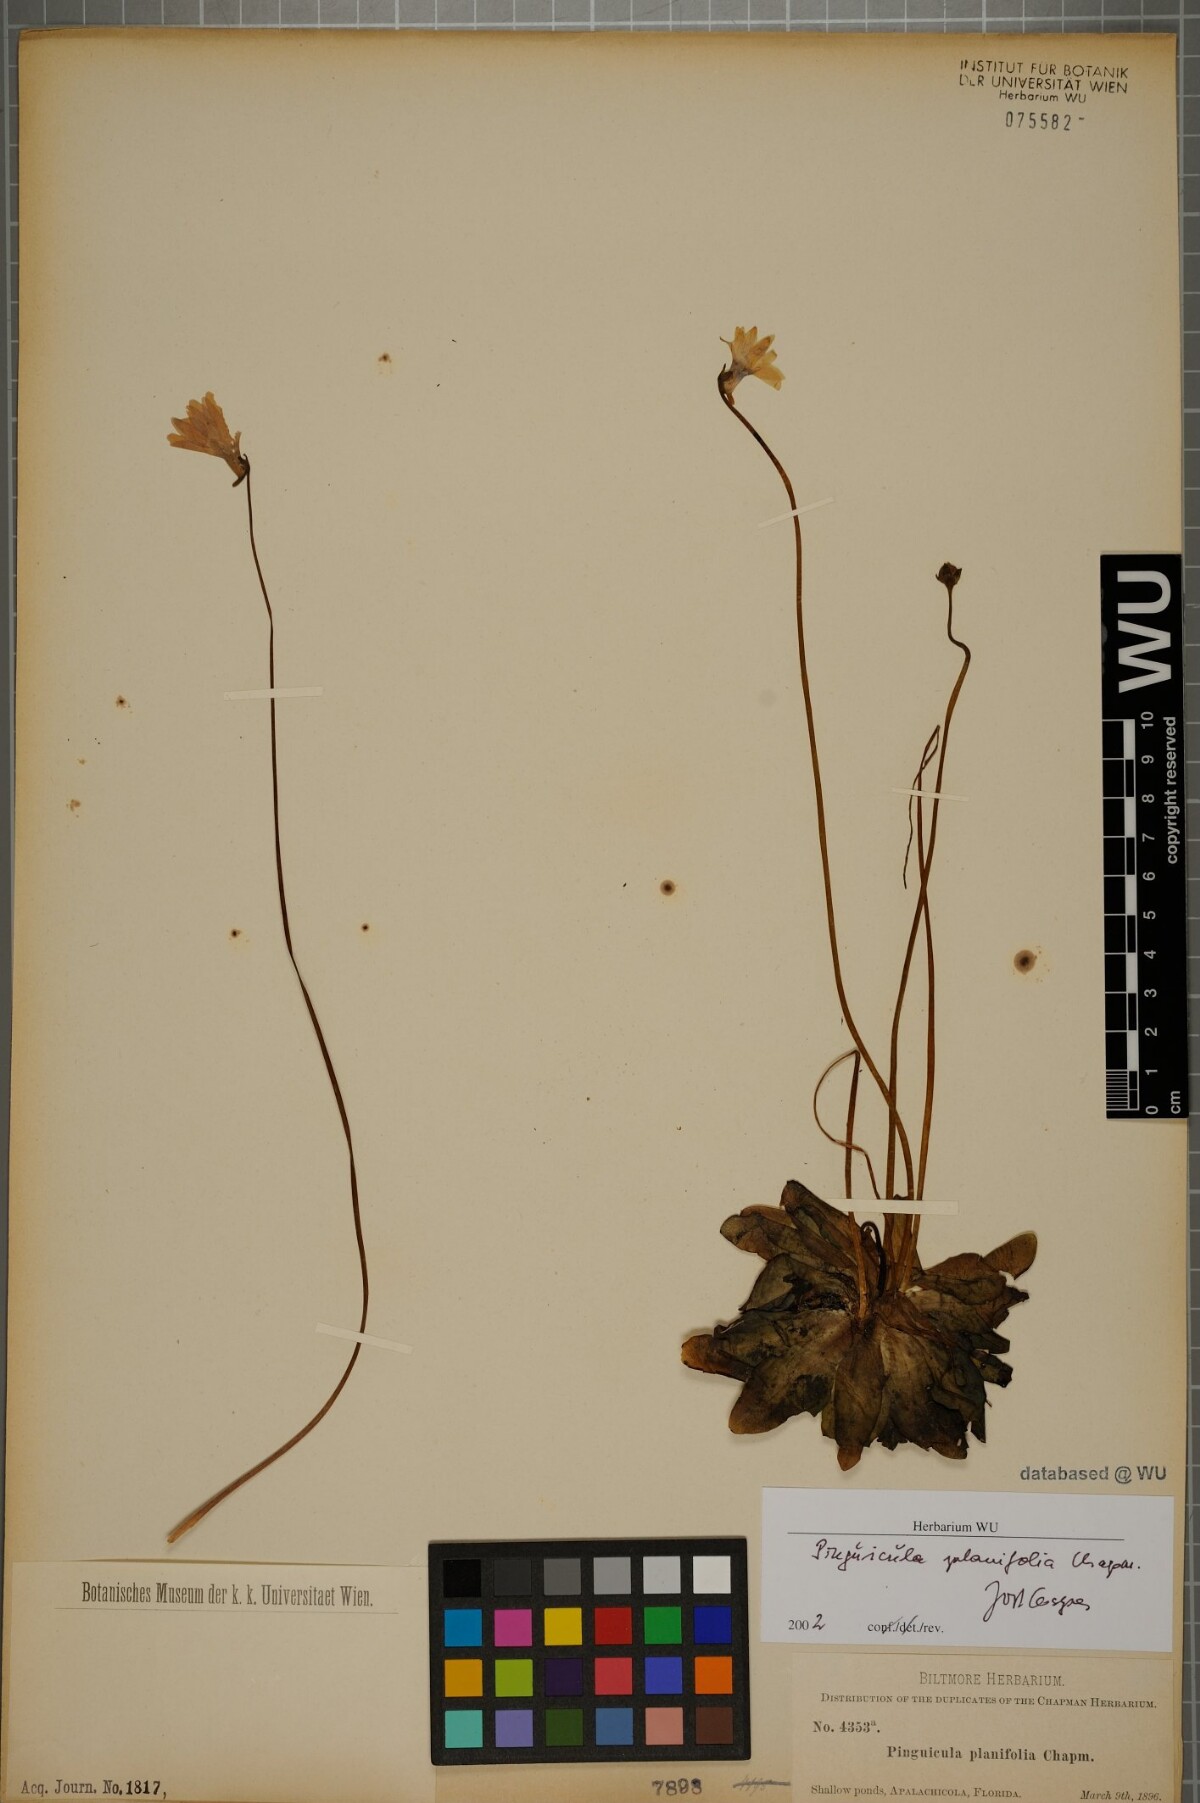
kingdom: Plantae
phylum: Tracheophyta
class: Magnoliopsida
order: Lamiales
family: Lentibulariaceae
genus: Pinguicula
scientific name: Pinguicula planifolia
